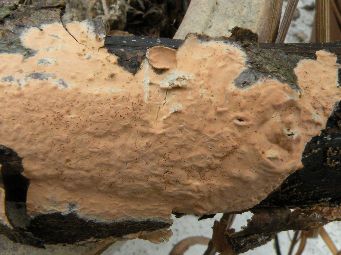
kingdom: Fungi
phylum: Basidiomycota
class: Agaricomycetes
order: Russulales
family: Peniophoraceae
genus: Peniophora
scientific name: Peniophora incarnata
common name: laksefarvet voksskind
